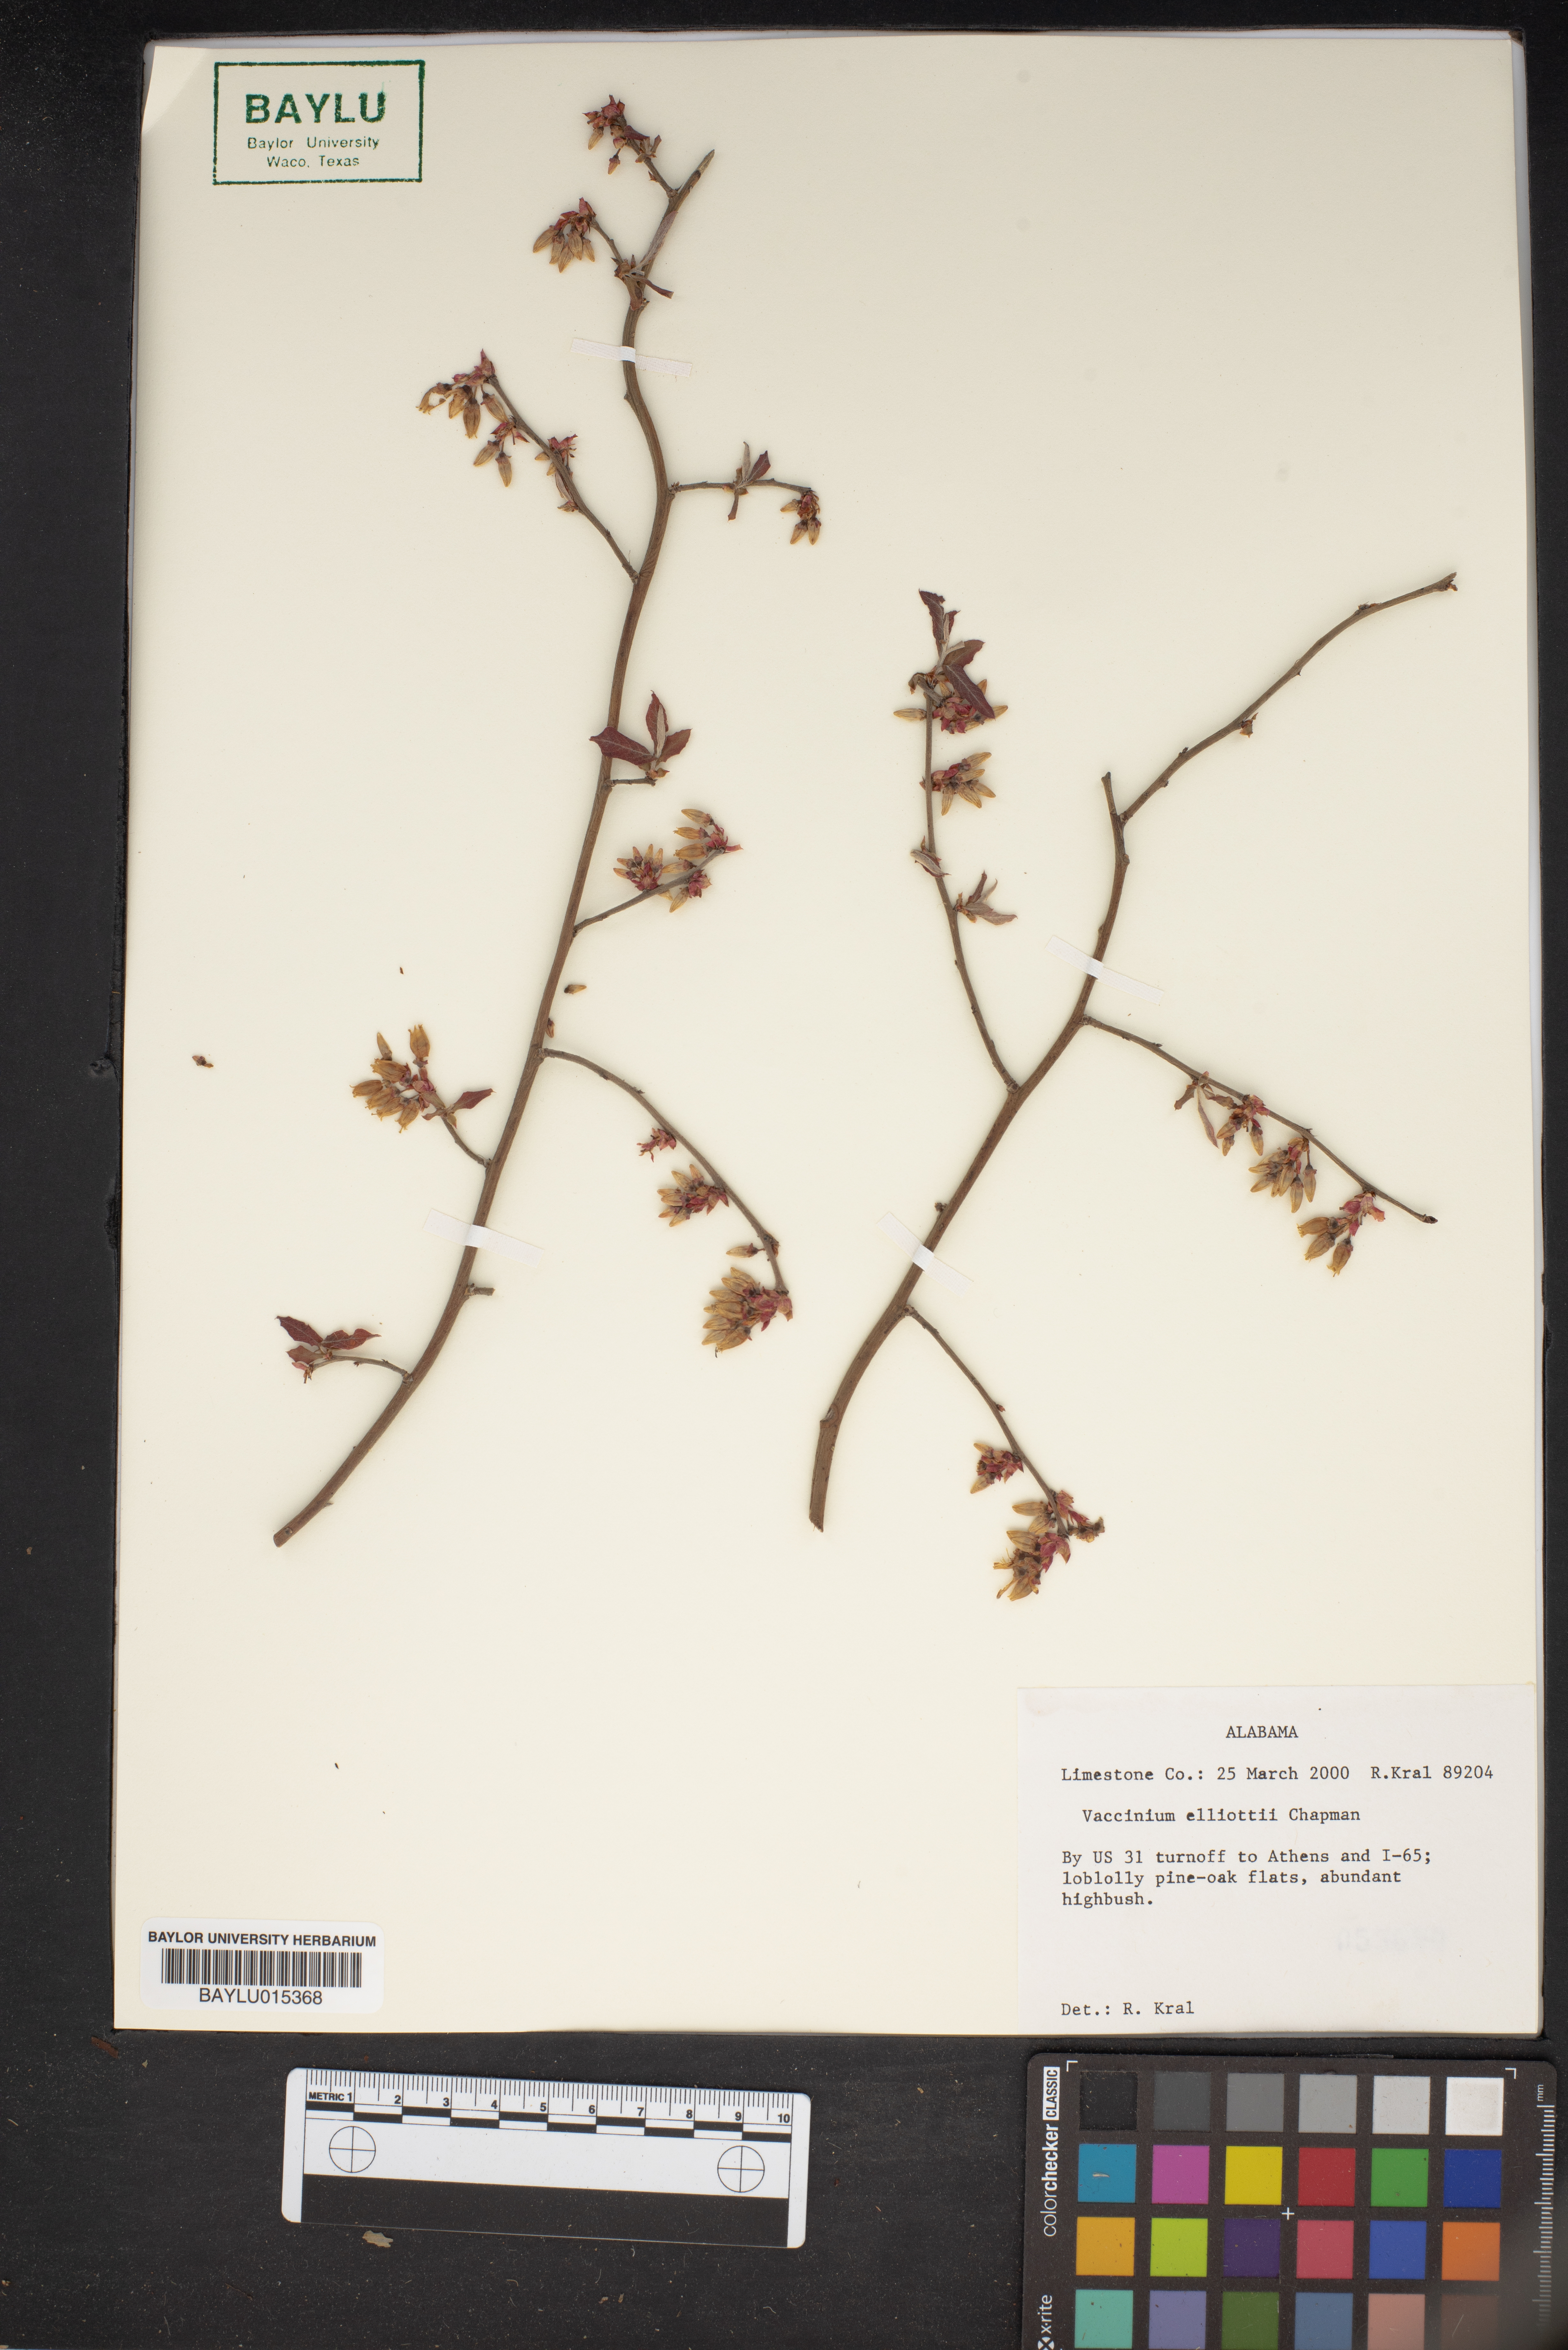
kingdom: Plantae
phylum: Tracheophyta
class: Magnoliopsida
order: Ericales
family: Ericaceae
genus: Vaccinium
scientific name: Vaccinium corymbosum
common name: Blueberry
